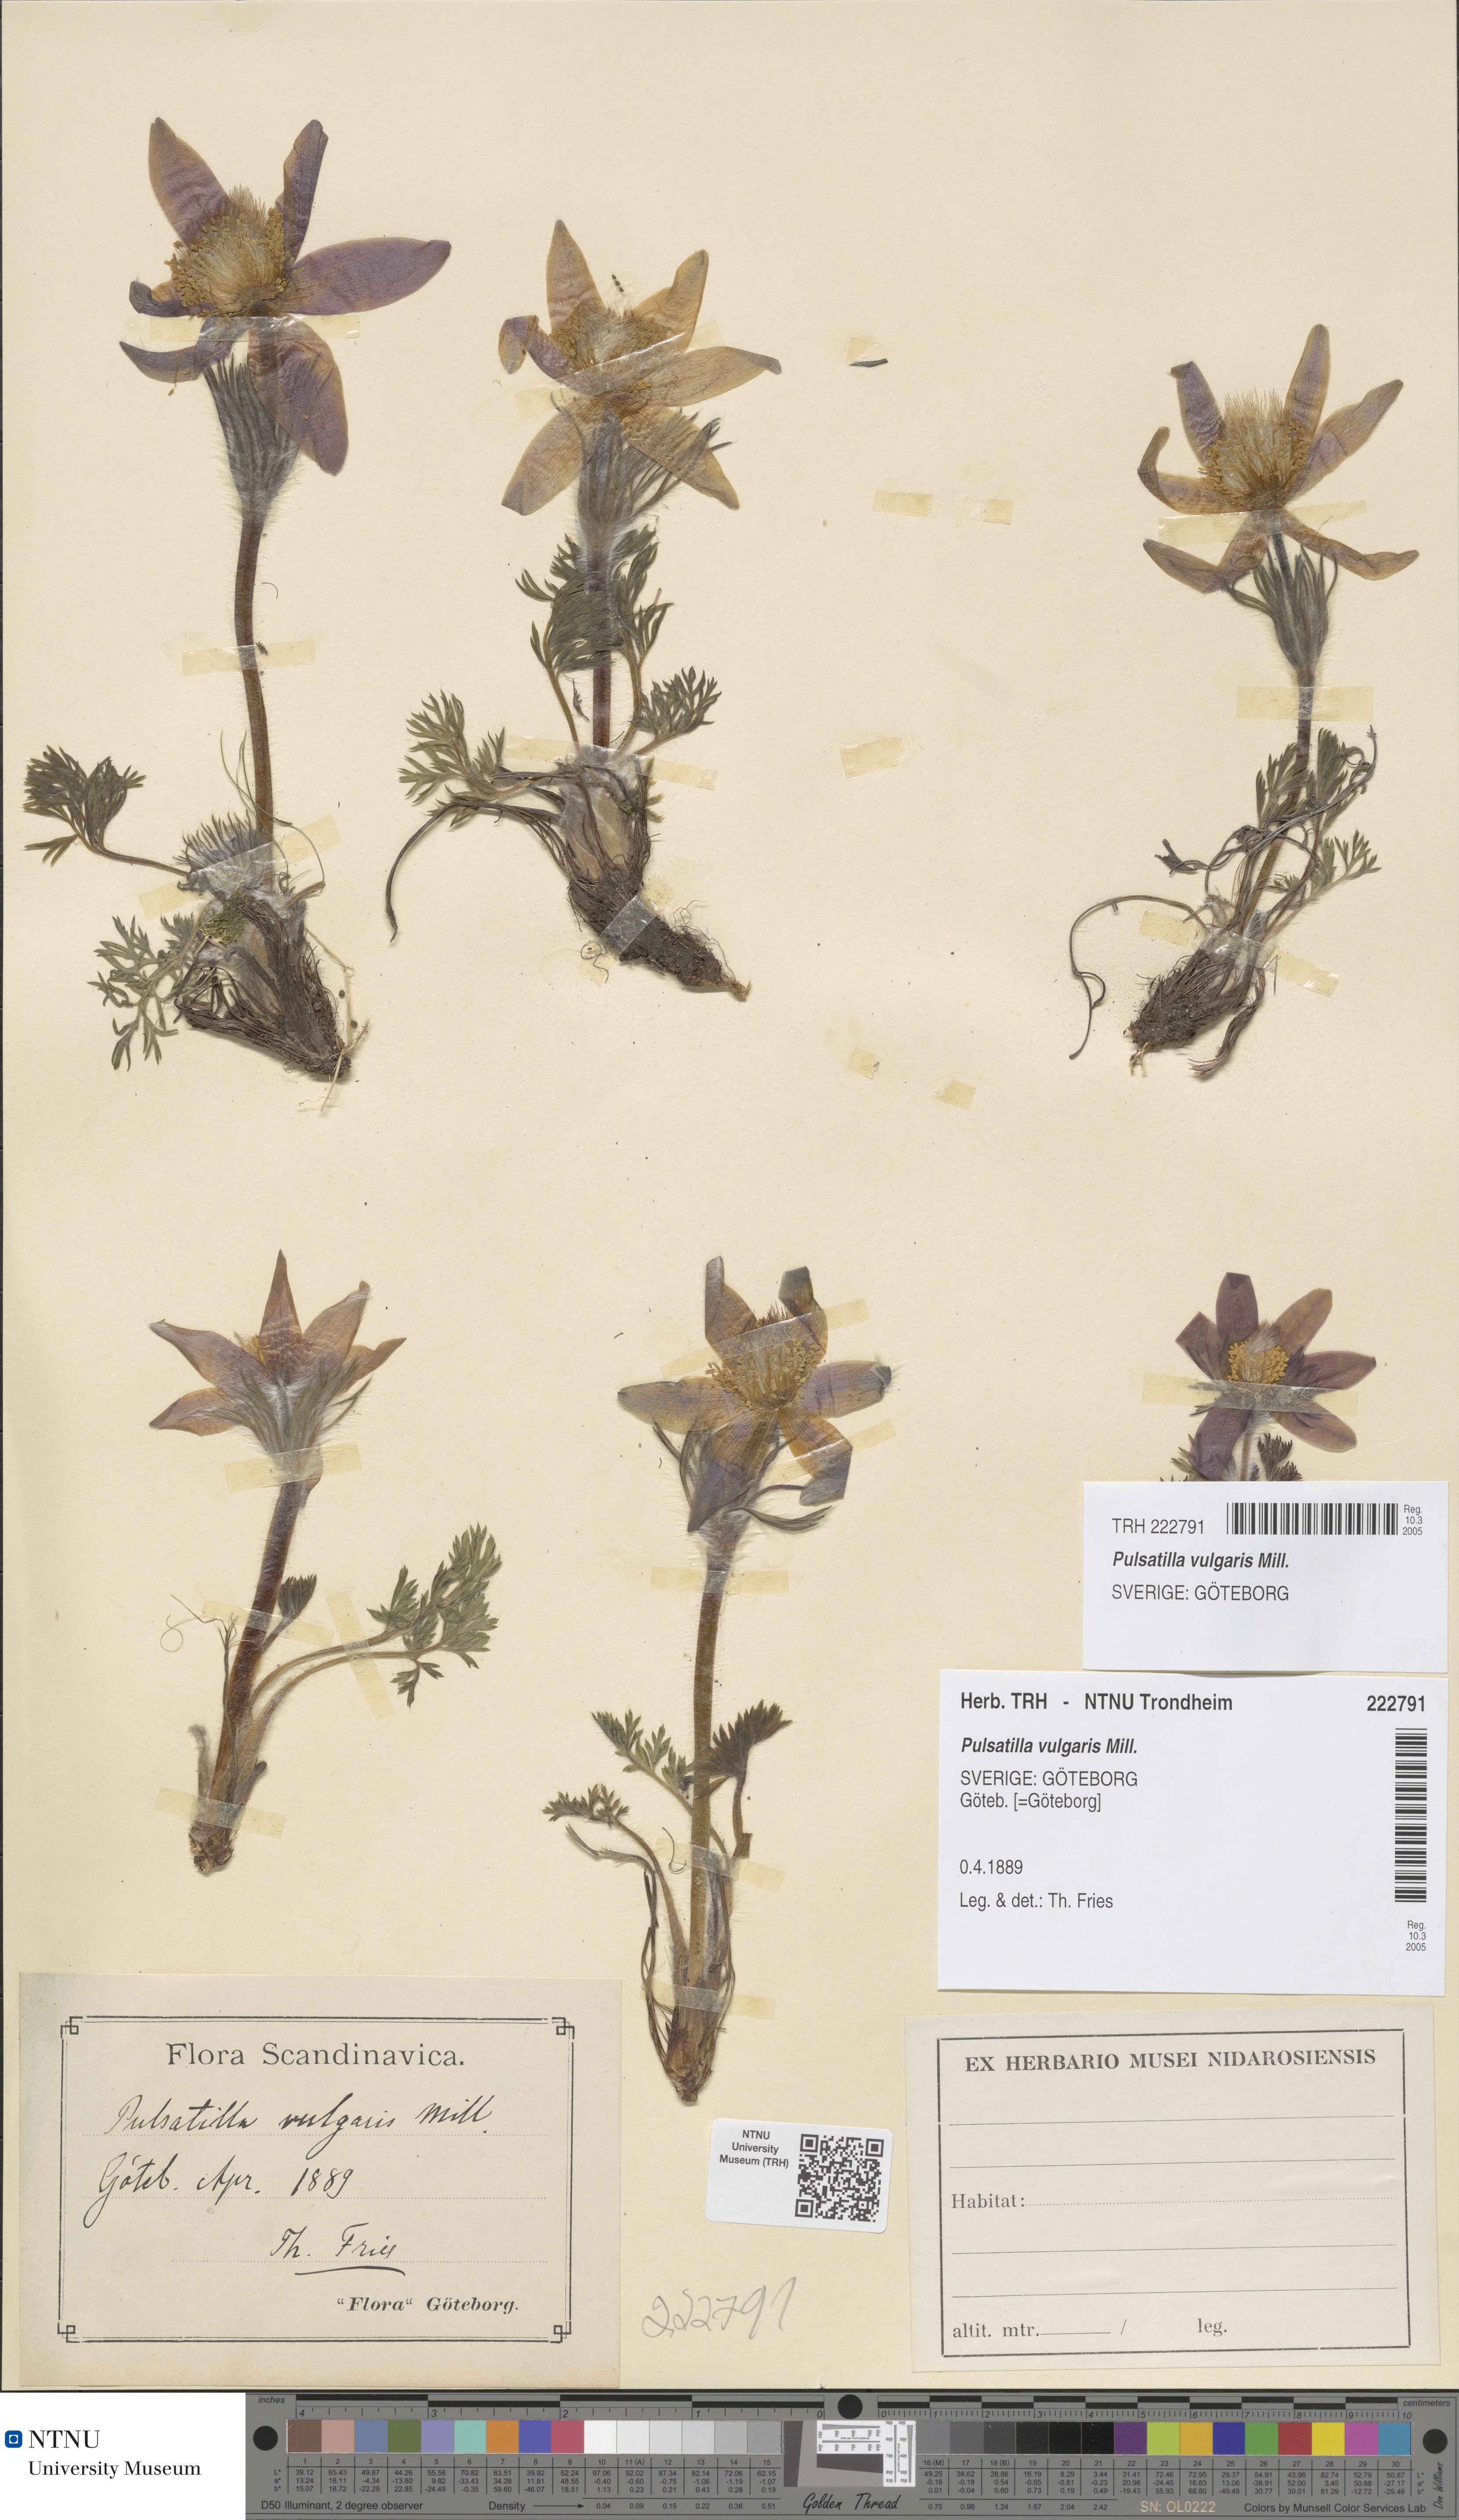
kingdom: Plantae
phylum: Tracheophyta
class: Magnoliopsida
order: Ranunculales
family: Ranunculaceae
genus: Pulsatilla
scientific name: Pulsatilla vulgaris
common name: Pasqueflower
